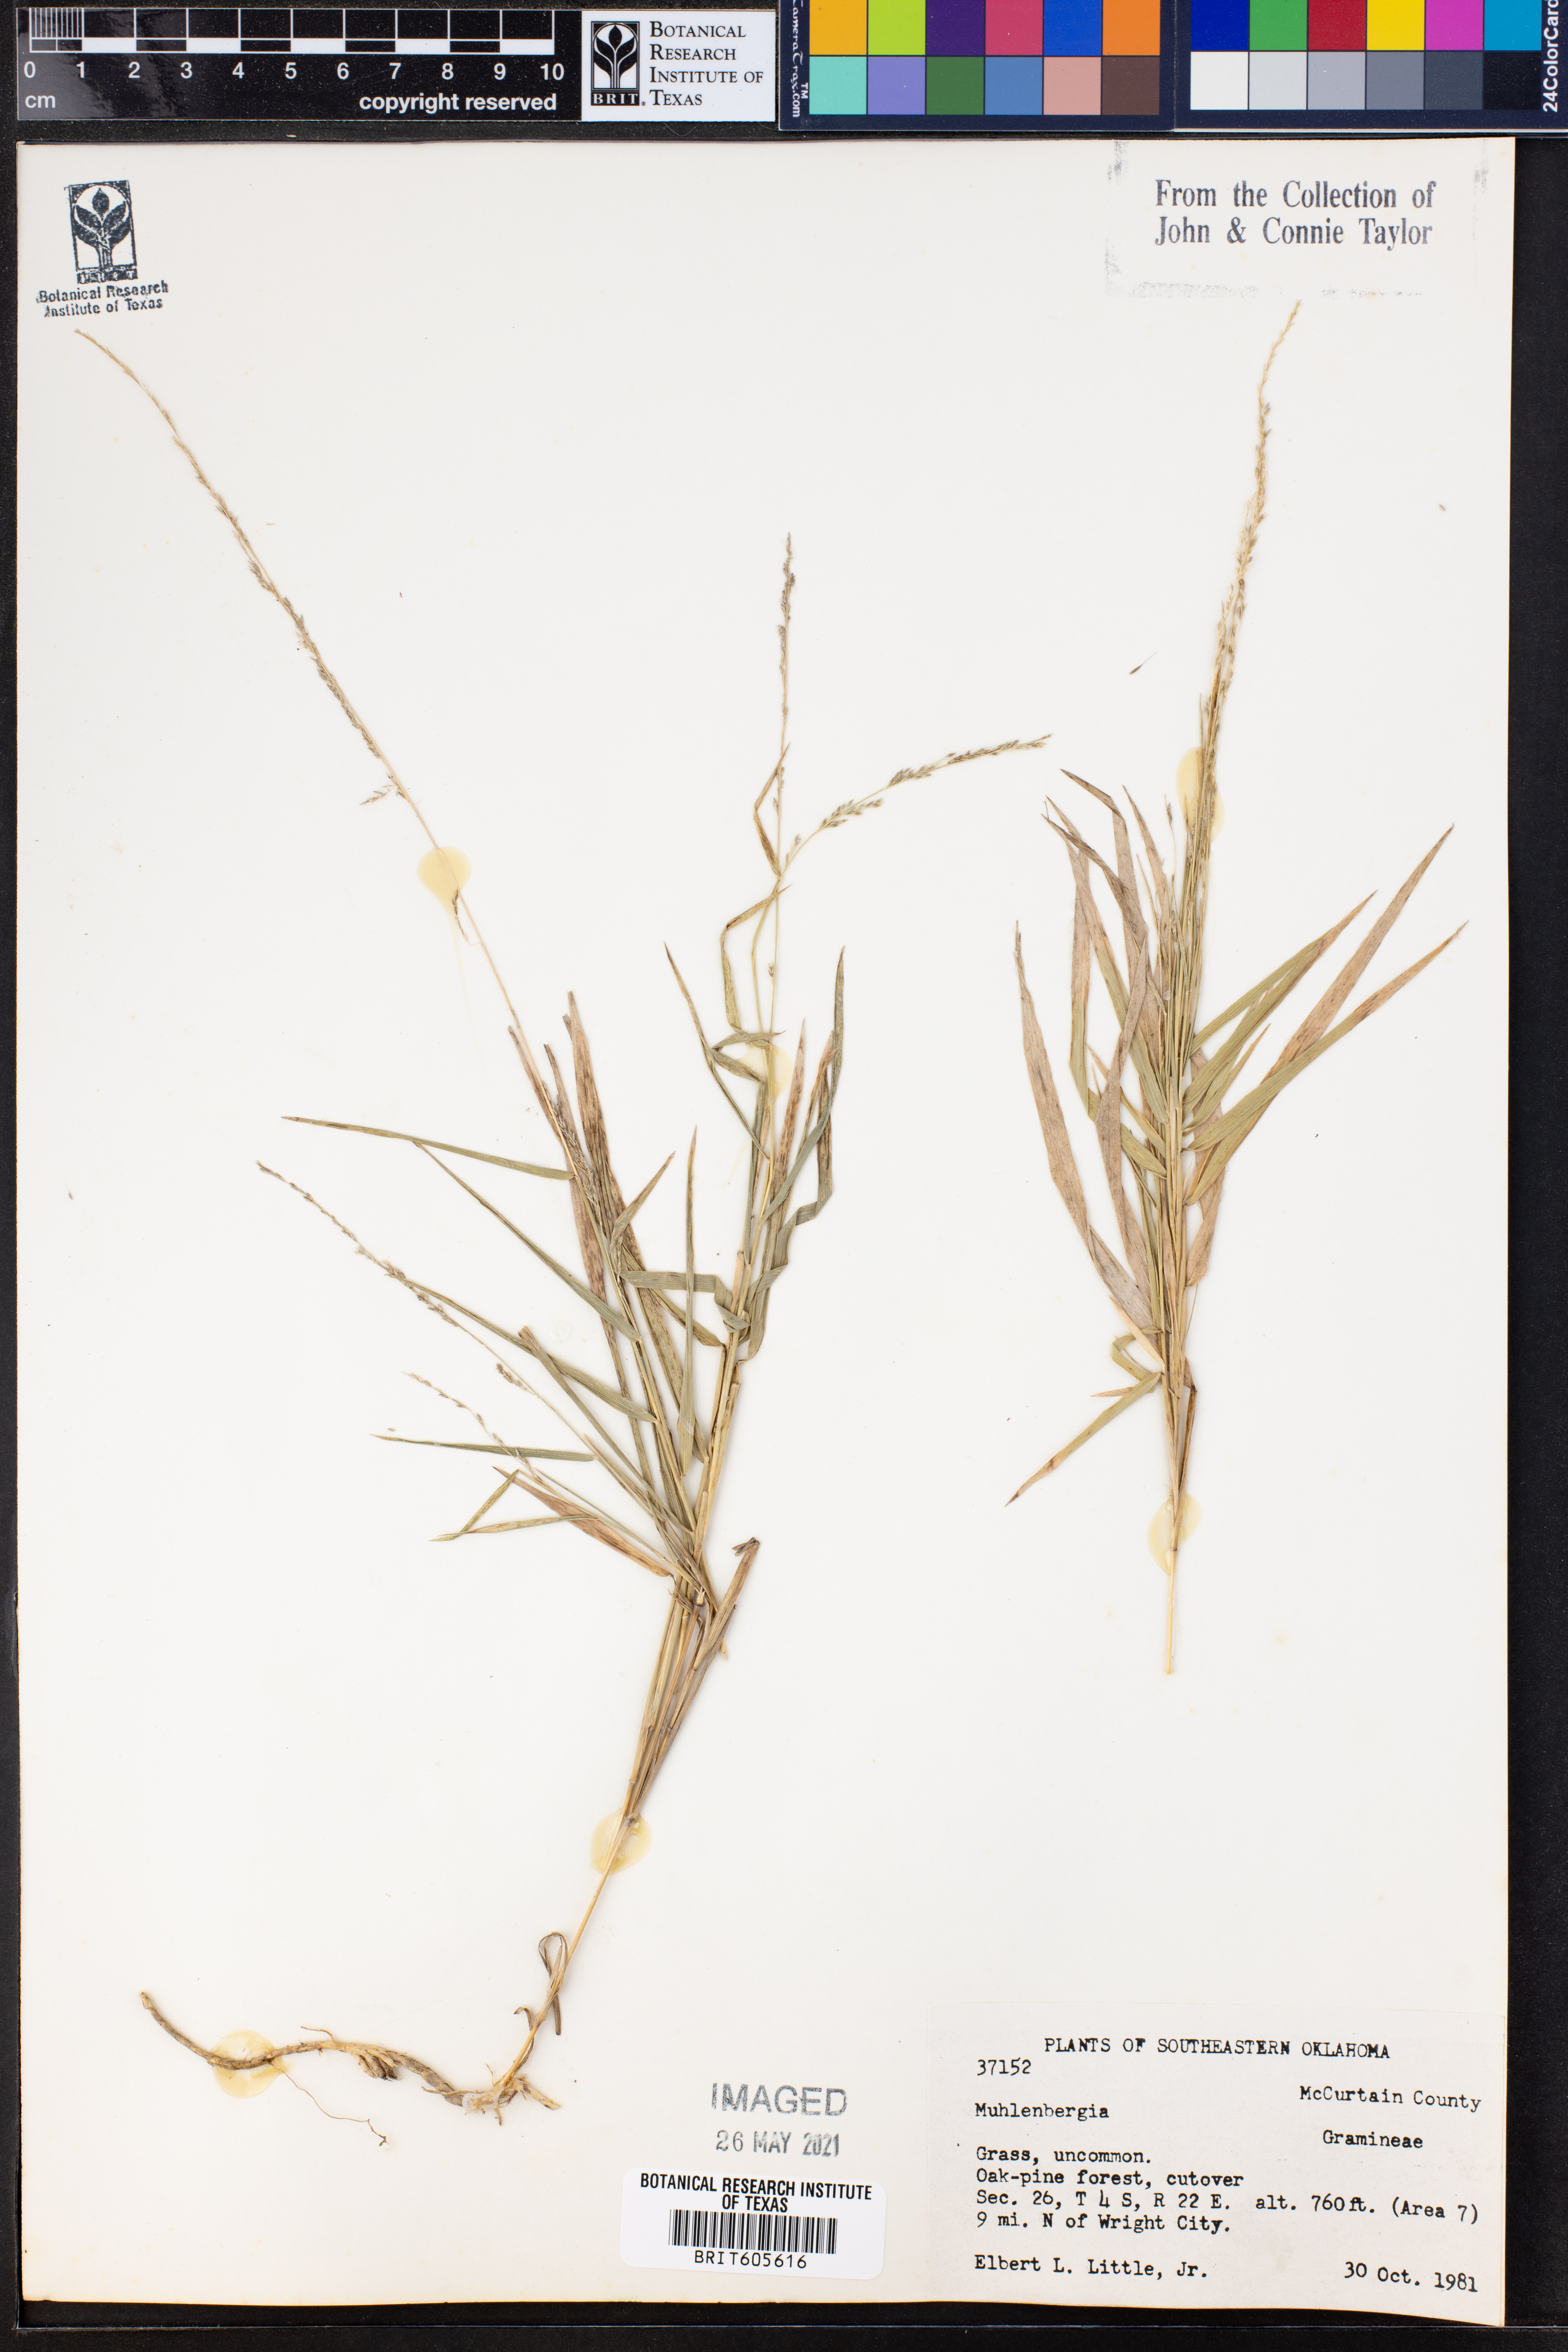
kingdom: Plantae
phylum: Tracheophyta
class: Liliopsida
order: Poales
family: Poaceae
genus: Muhlenbergia
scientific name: Muhlenbergia
